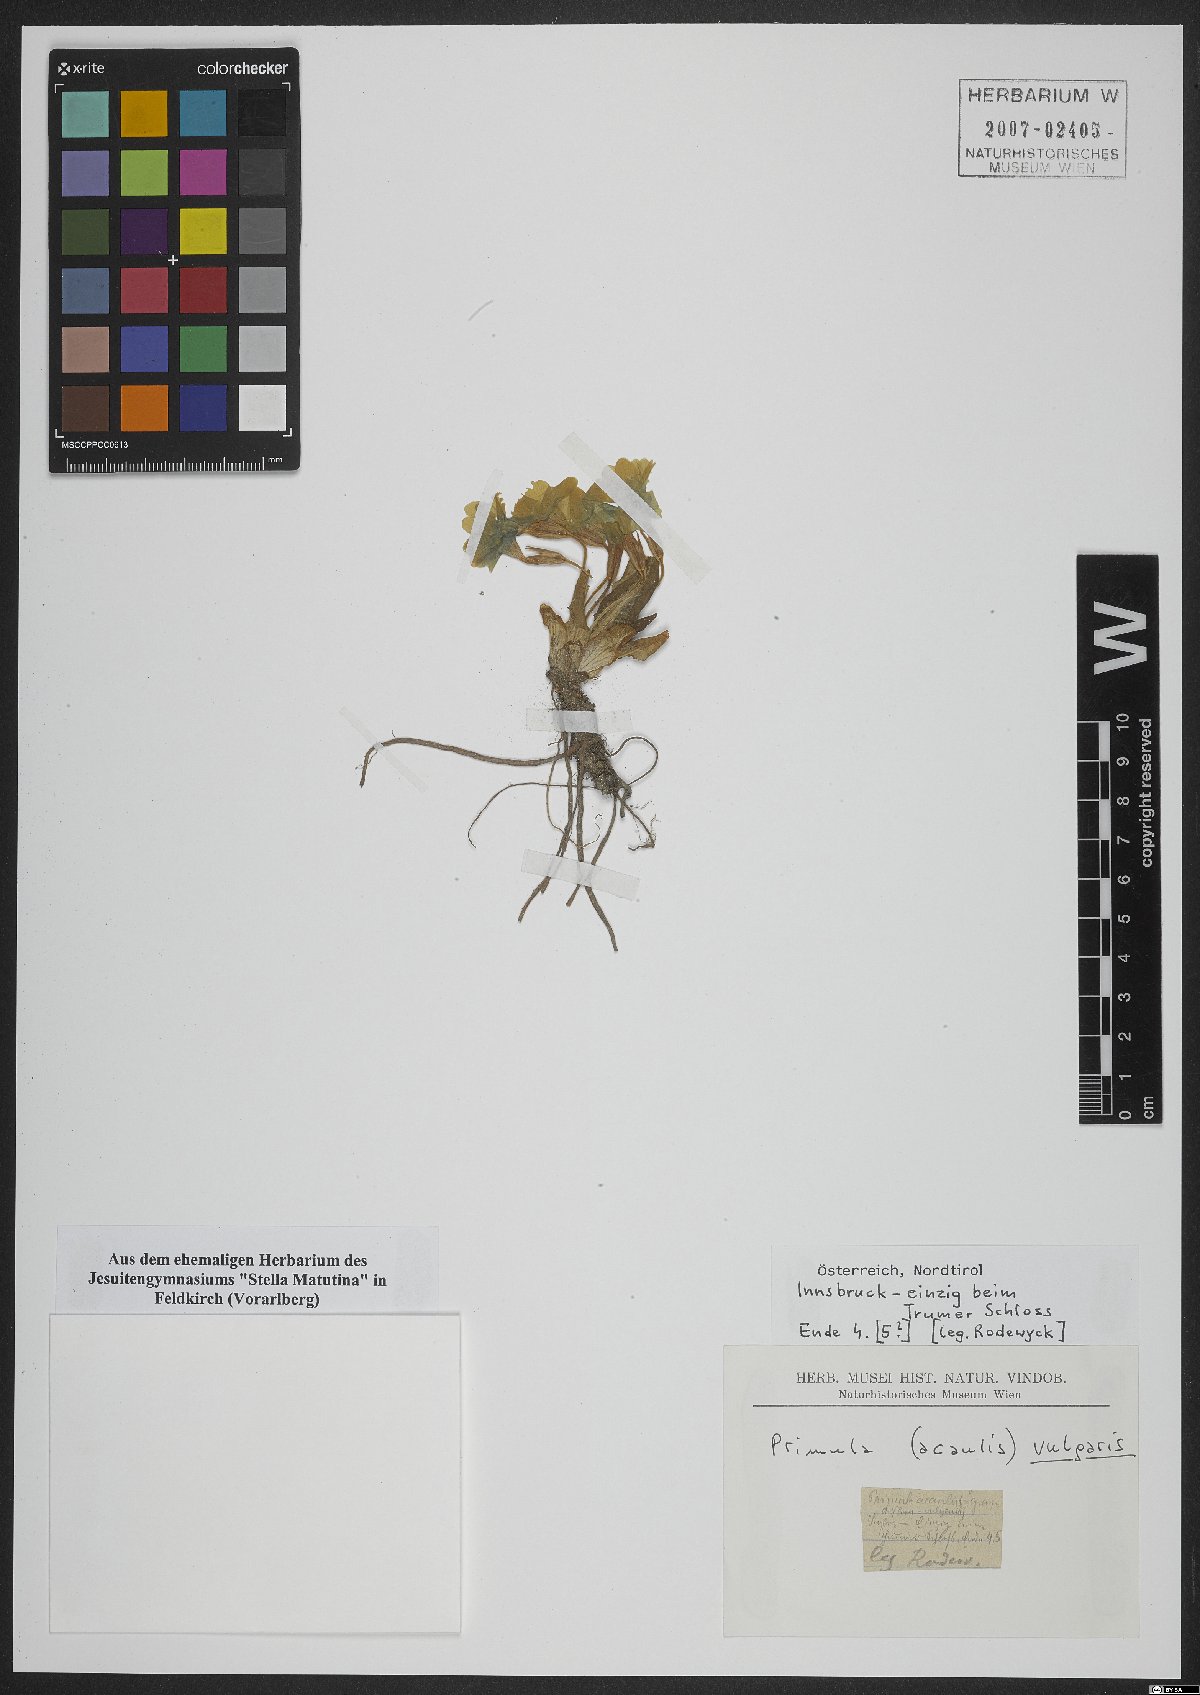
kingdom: Plantae
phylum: Tracheophyta
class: Magnoliopsida
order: Ericales
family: Primulaceae
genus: Primula
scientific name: Primula vulgaris
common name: Primrose
